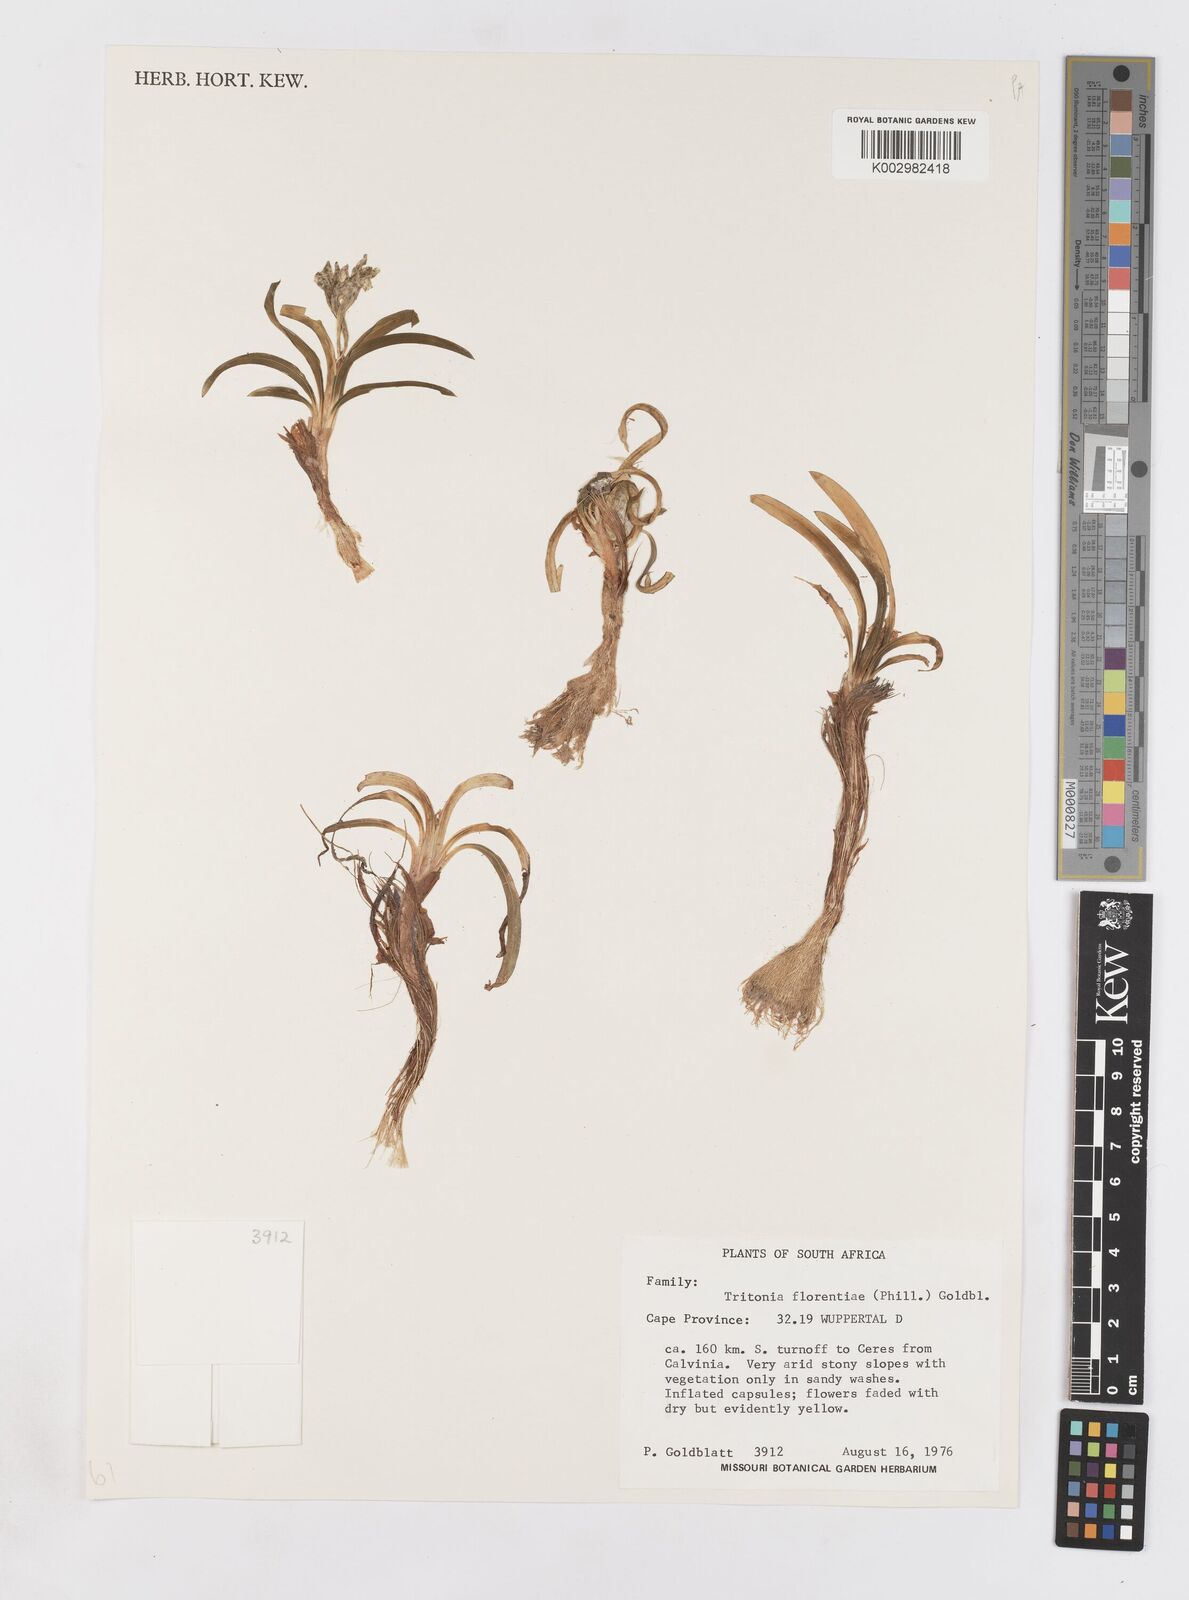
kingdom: Plantae
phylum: Tracheophyta
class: Liliopsida
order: Asparagales
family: Iridaceae
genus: Tritonia
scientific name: Tritonia florentiae
